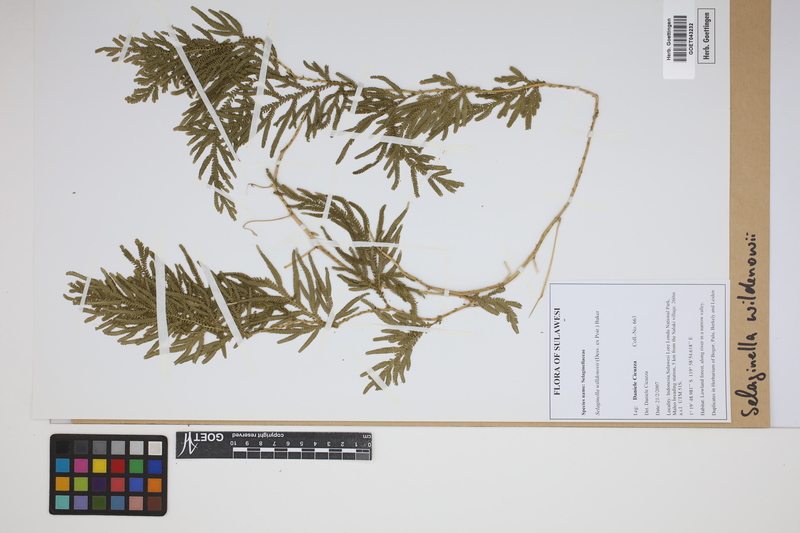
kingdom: Plantae
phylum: Tracheophyta
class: Lycopodiopsida
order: Selaginellales
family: Selaginellaceae
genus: Selaginella
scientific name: Selaginella willdenowii
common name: Willdenow's spikemoss
